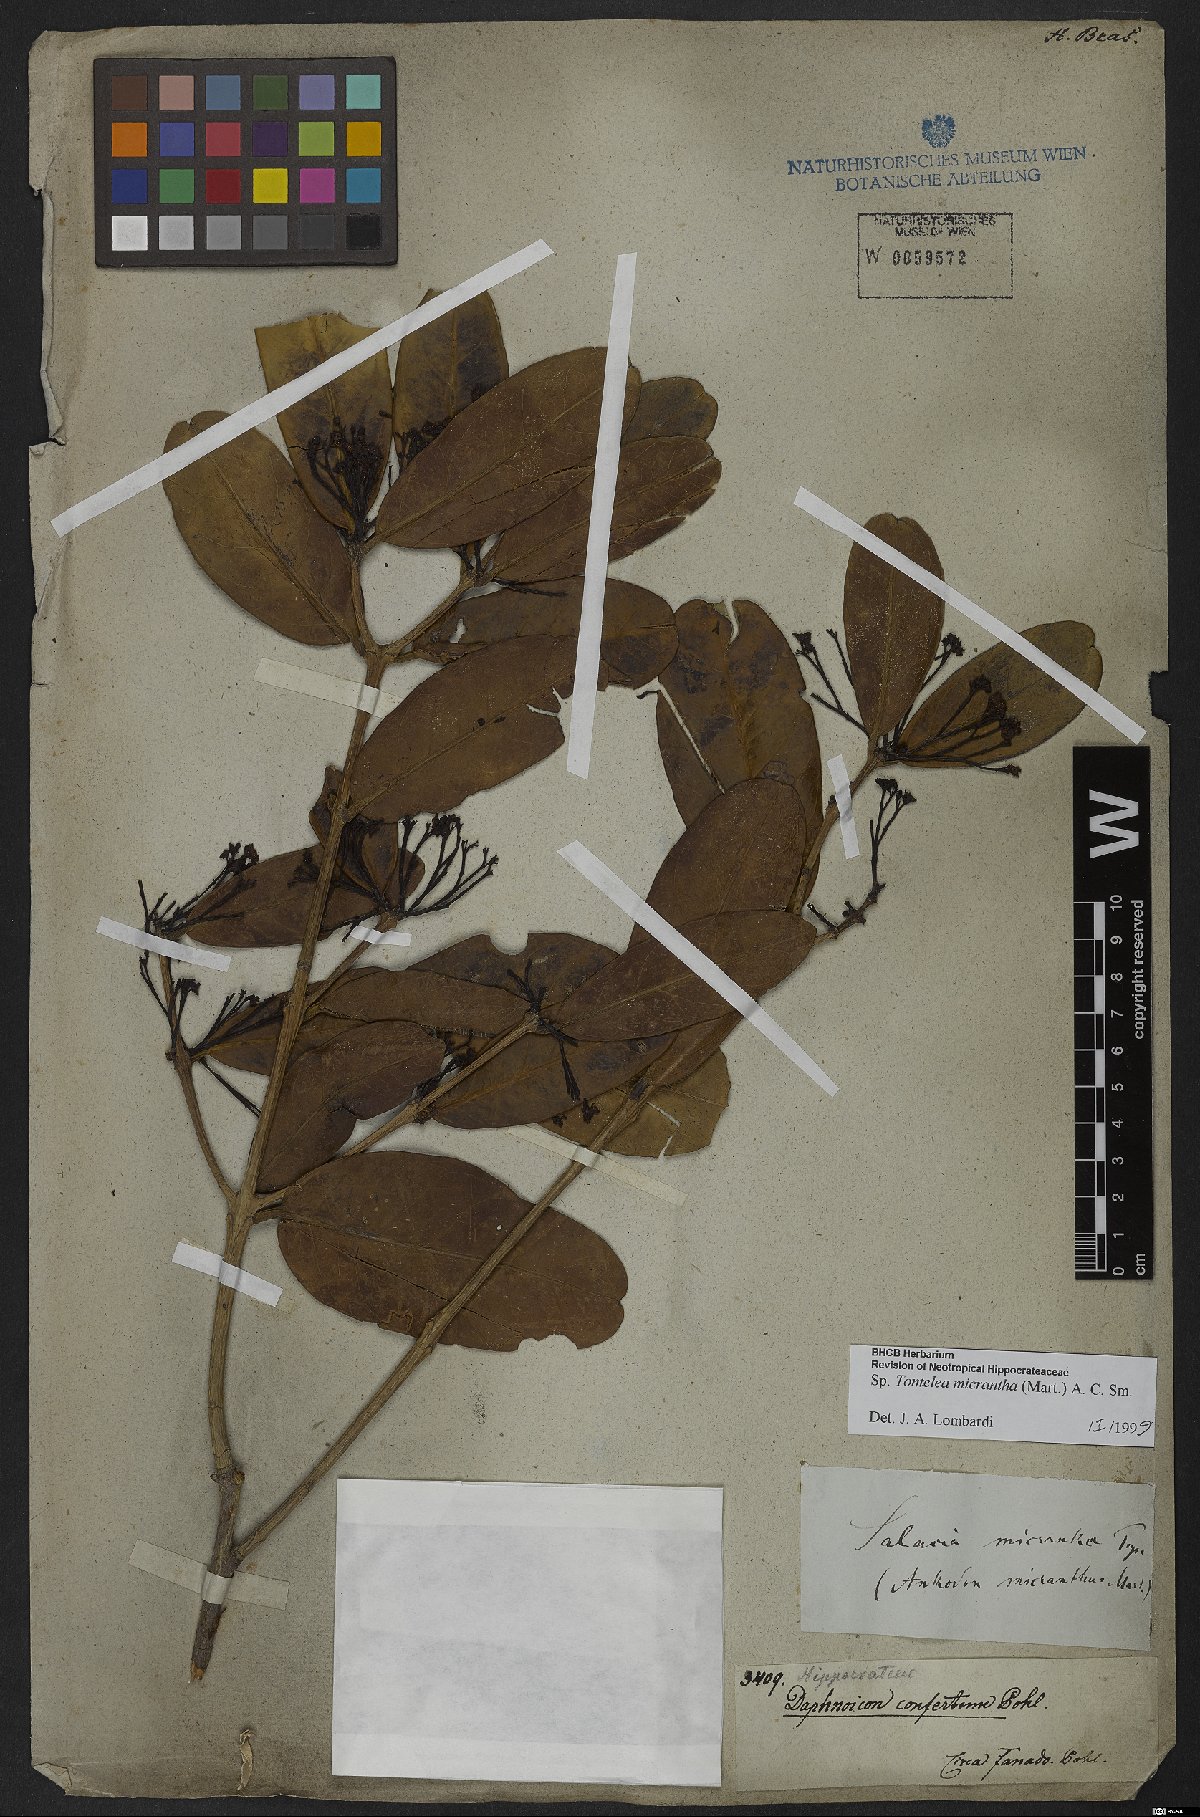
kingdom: Plantae
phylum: Tracheophyta
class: Magnoliopsida
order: Celastrales
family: Celastraceae
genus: Tontelea
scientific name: Tontelea micrantha
